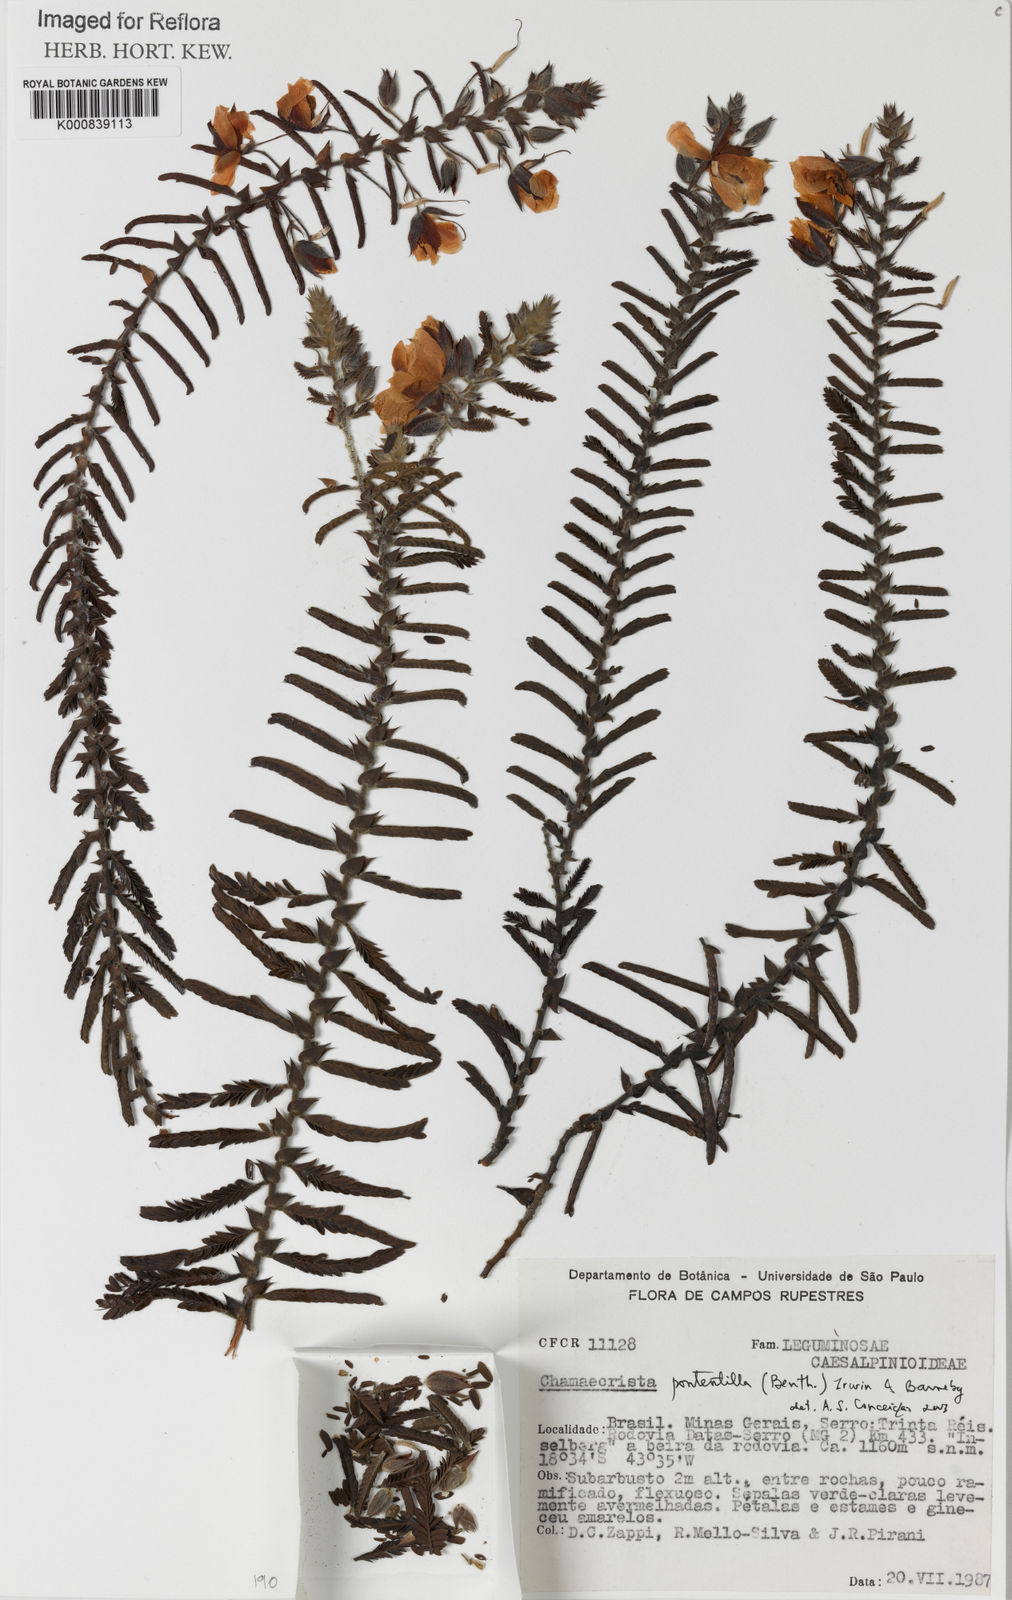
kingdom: Plantae
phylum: Tracheophyta
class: Magnoliopsida
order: Fabales
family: Fabaceae
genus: Chamaecrista
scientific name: Chamaecrista potentilla
